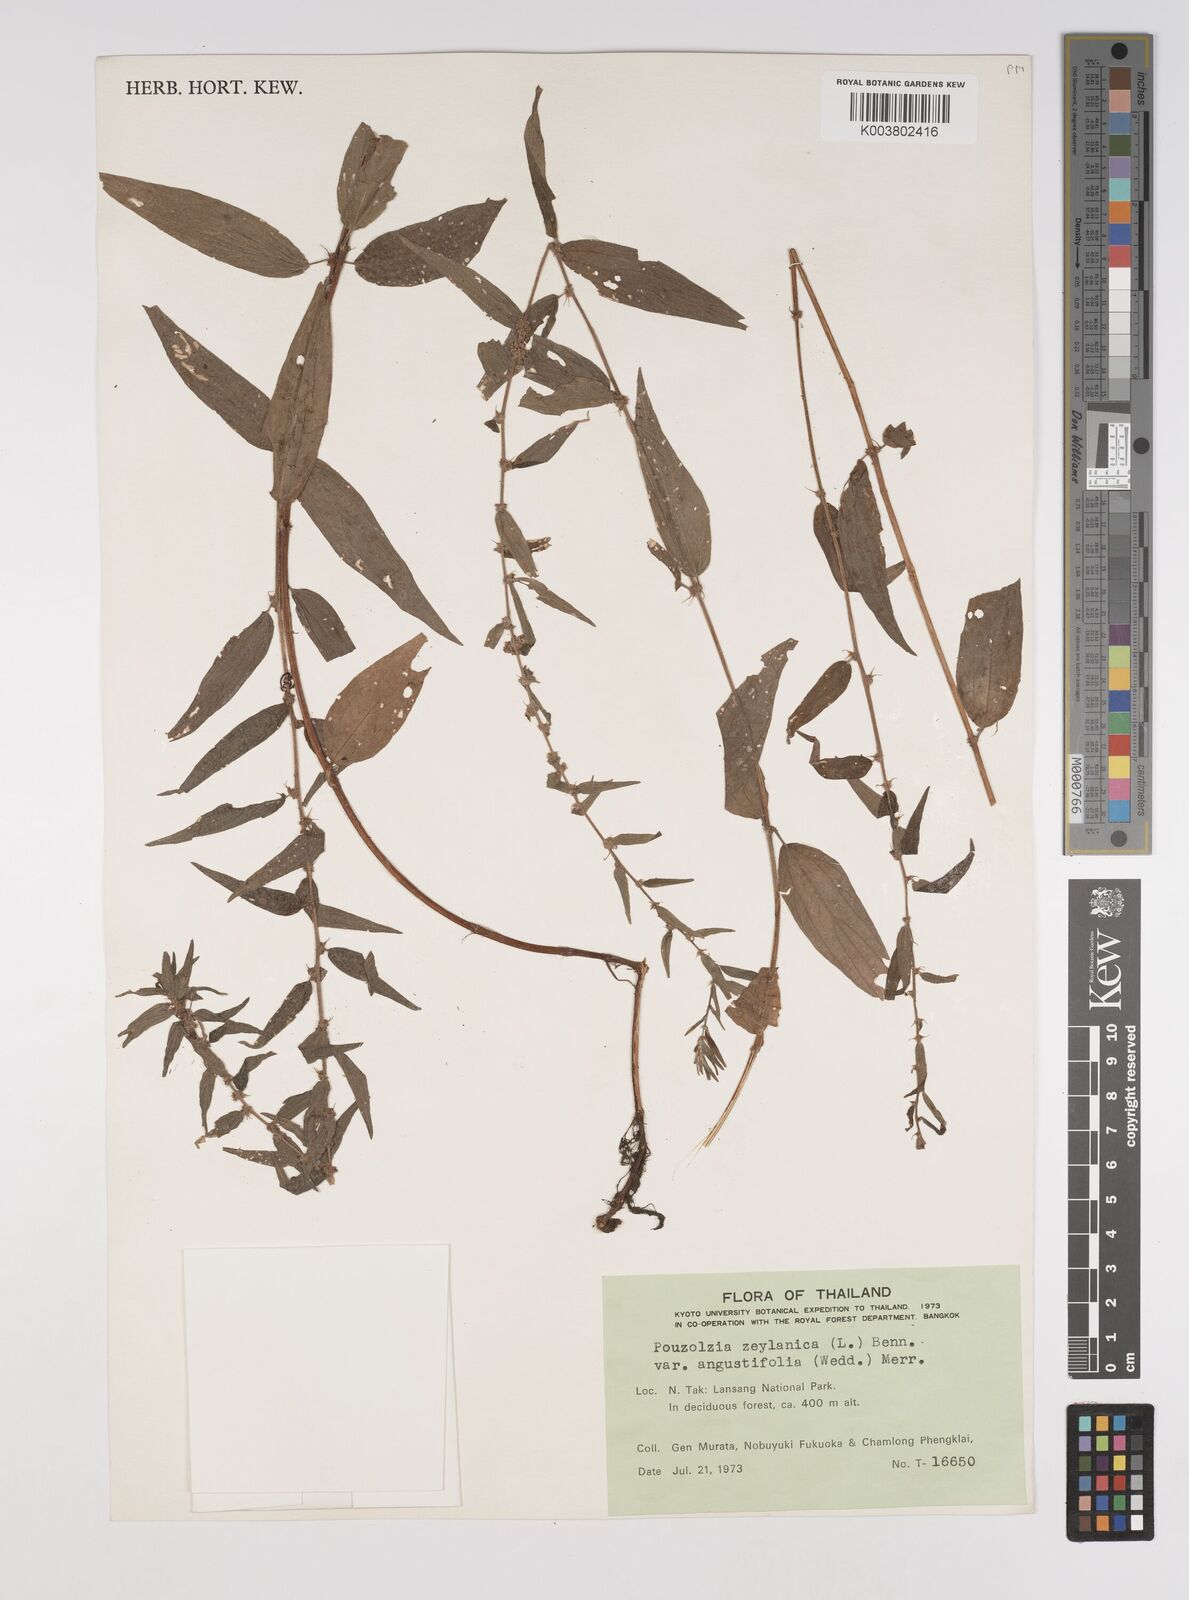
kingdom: Plantae
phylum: Tracheophyta
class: Magnoliopsida
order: Rosales
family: Urticaceae
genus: Pouzolzia
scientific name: Pouzolzia zeylanica
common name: Graceful pouzolzsbush
